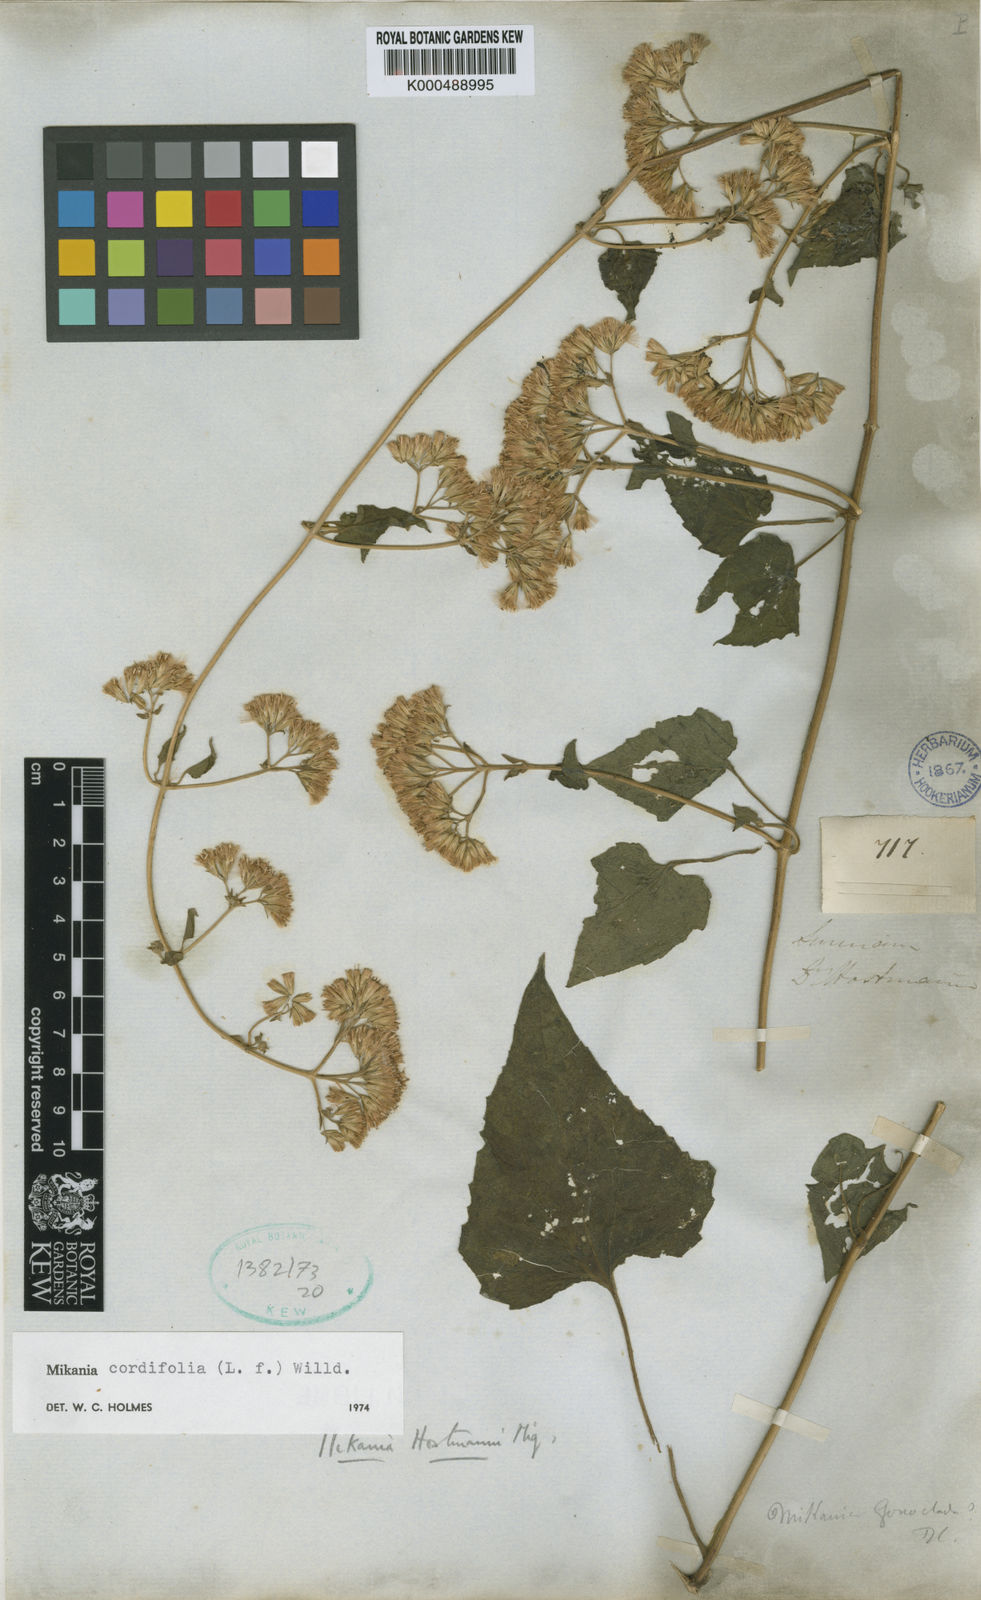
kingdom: Plantae
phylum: Tracheophyta
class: Magnoliopsida
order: Asterales
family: Asteraceae
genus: Mikania
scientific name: Mikania cordifolia
